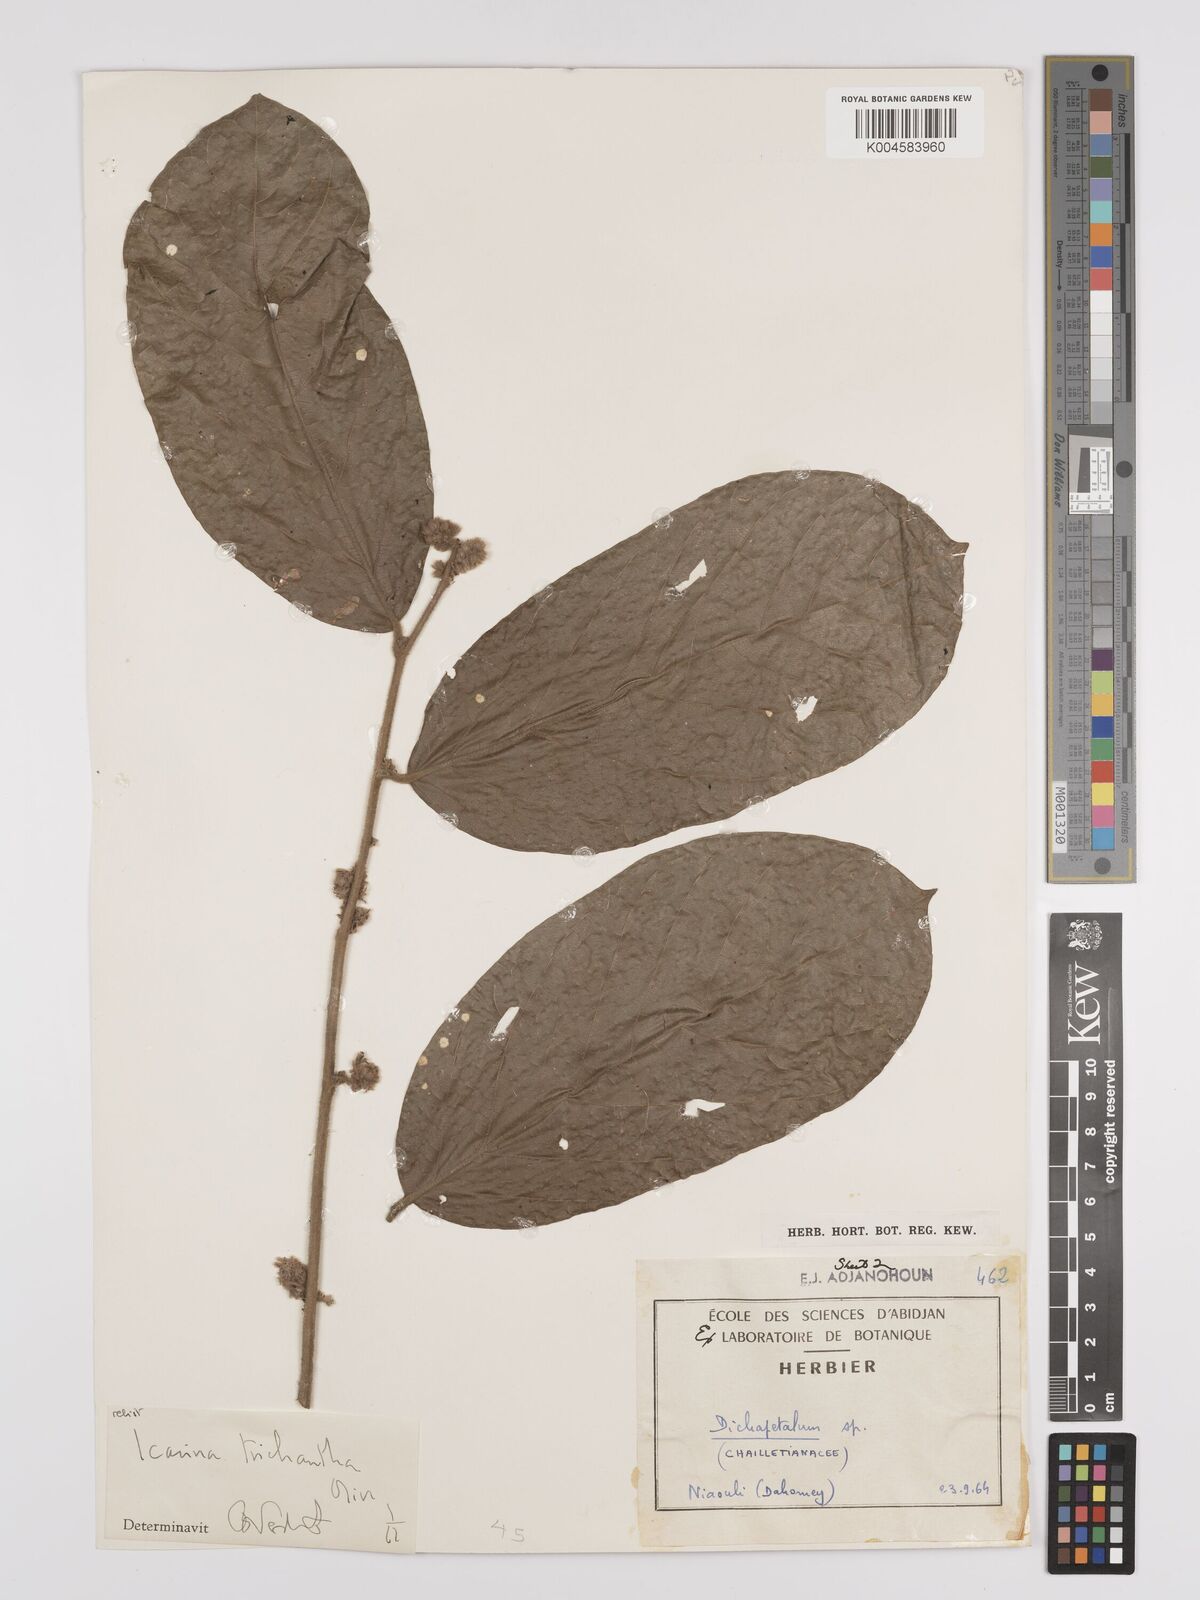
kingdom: Plantae
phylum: Tracheophyta
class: Magnoliopsida
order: Icacinales
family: Icacinaceae
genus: Icacina
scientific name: Icacina trichantha
